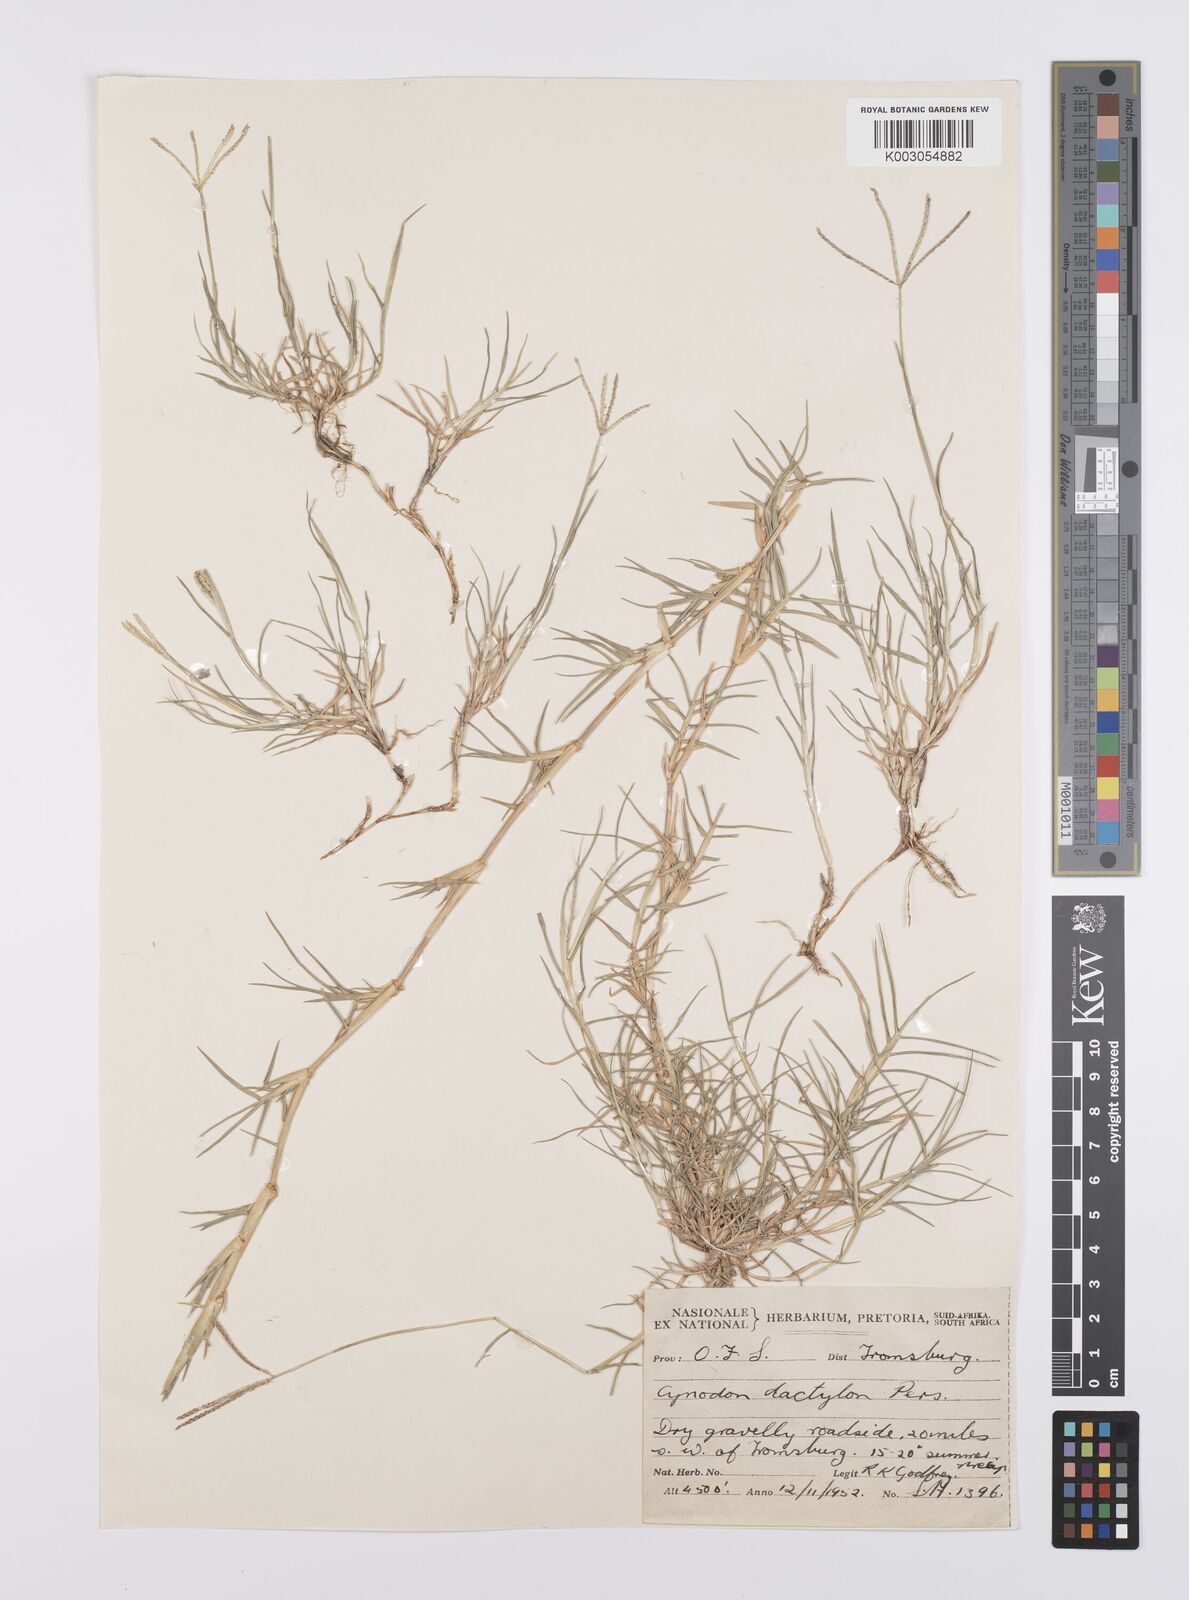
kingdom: Plantae
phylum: Tracheophyta
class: Liliopsida
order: Poales
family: Poaceae
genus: Cynodon
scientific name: Cynodon dactylon
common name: Bermuda grass
